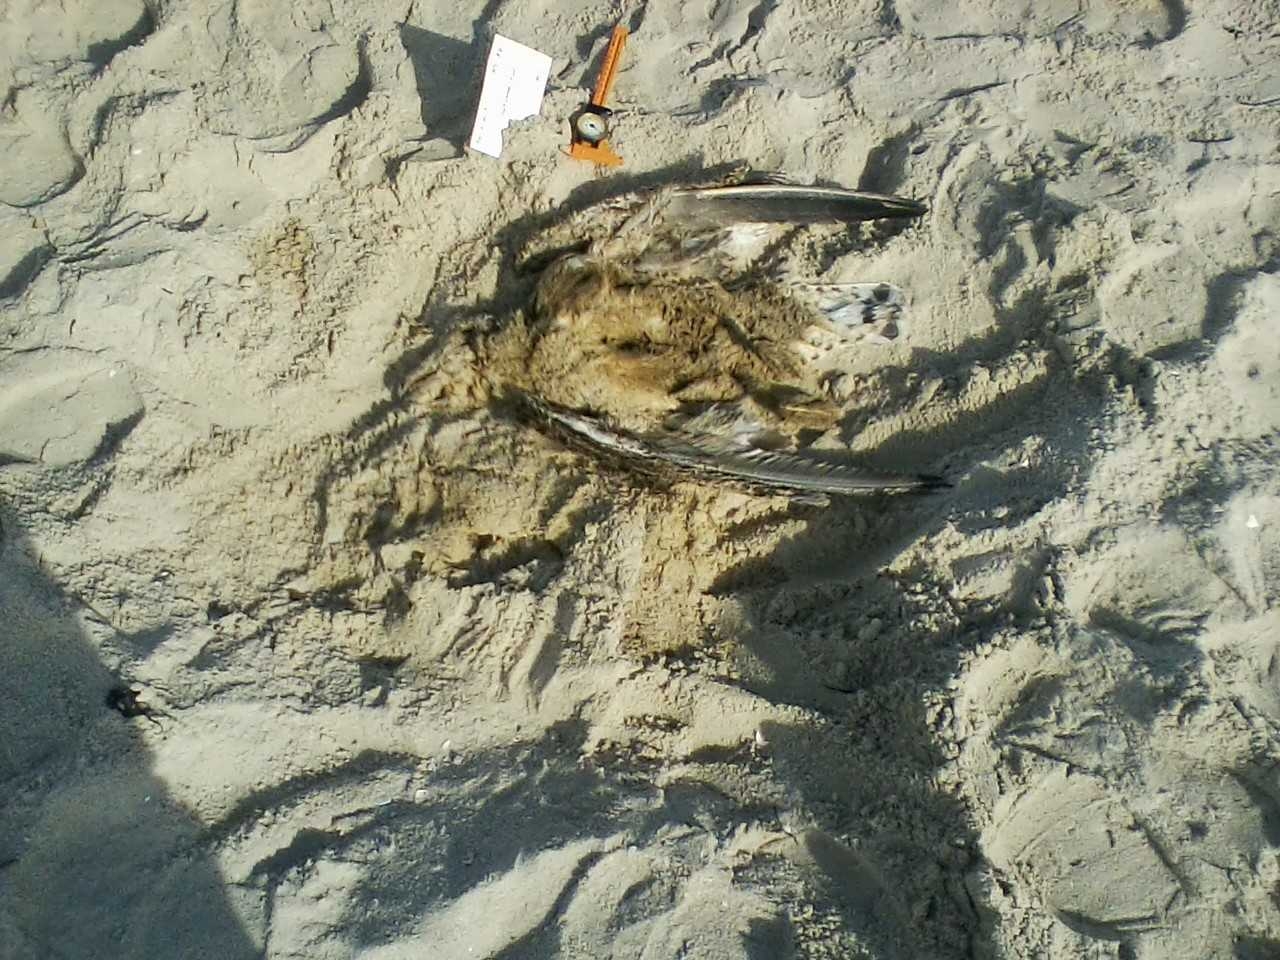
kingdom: Animalia
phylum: Chordata
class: Aves
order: Charadriiformes
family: Laridae
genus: Larus
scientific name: Larus marinus
